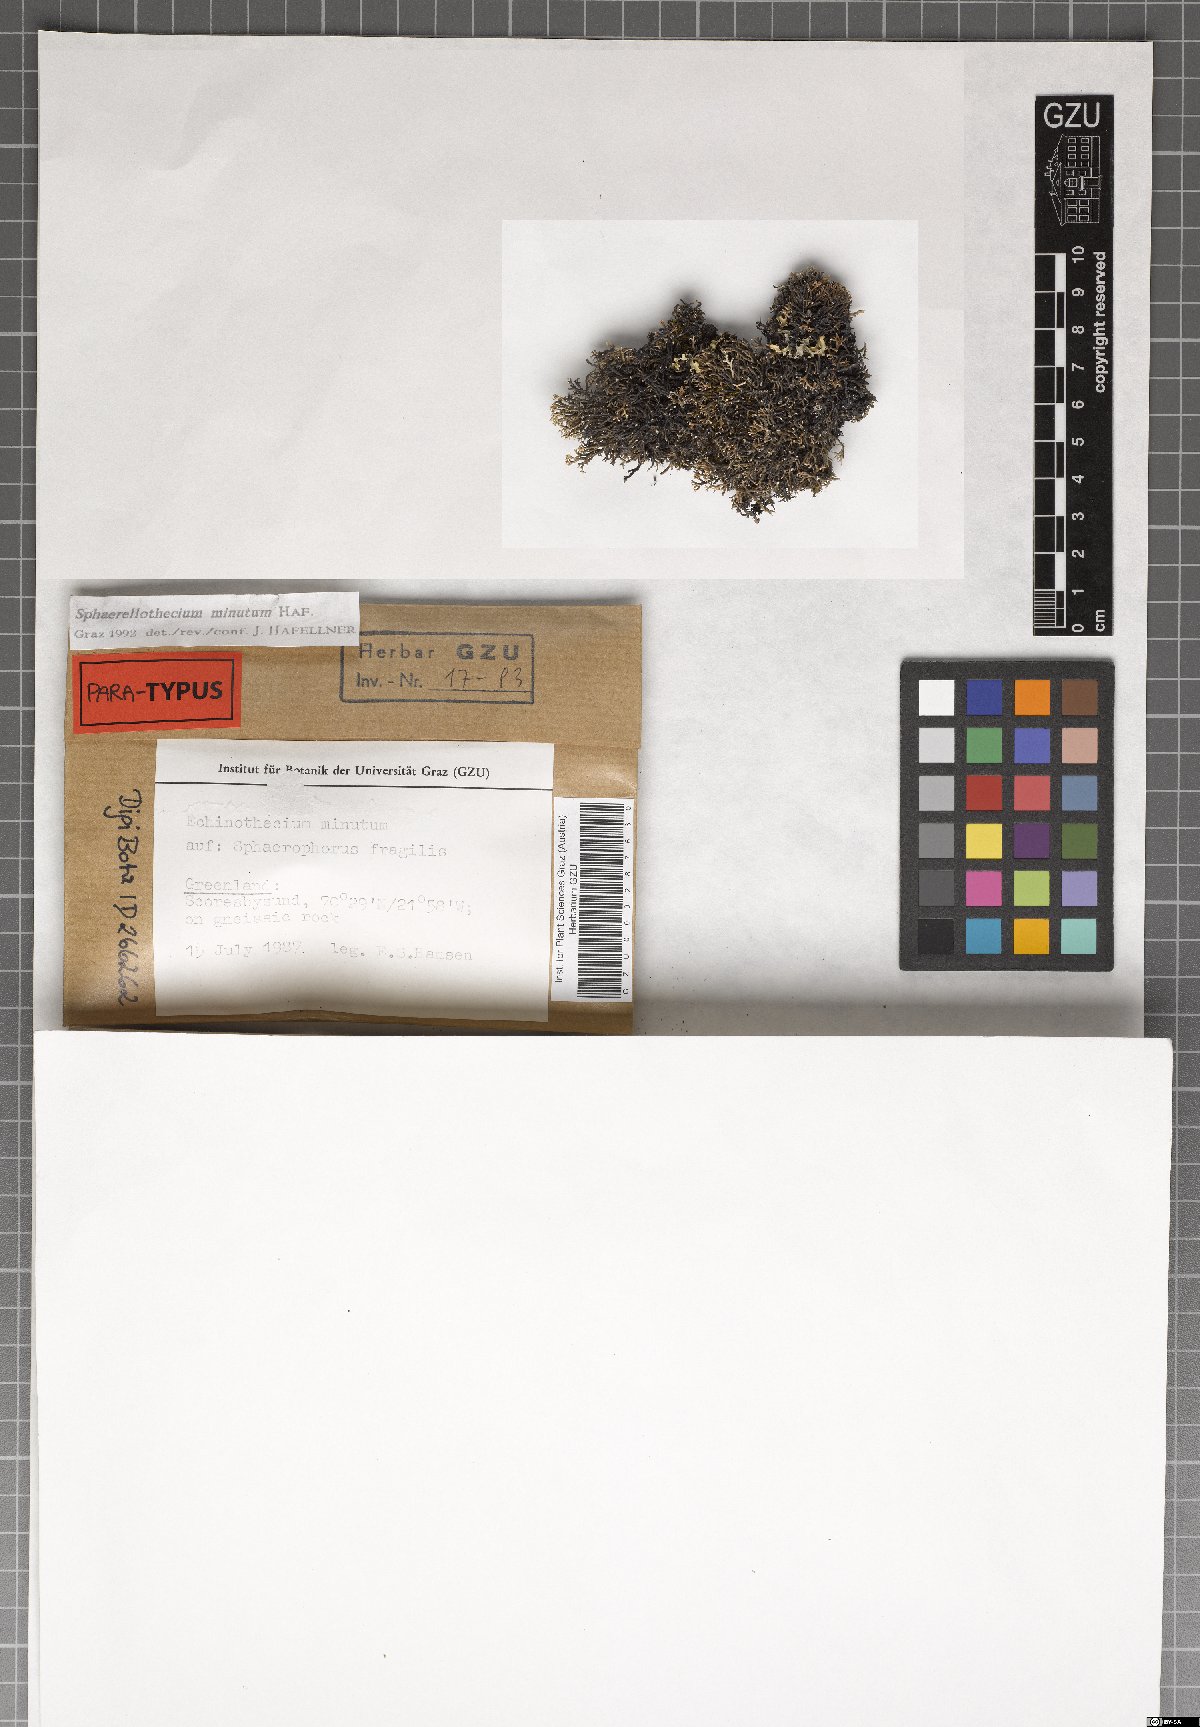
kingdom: Fungi
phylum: Ascomycota
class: Dothideomycetes
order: Mycosphaerellales
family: Mycosphaerellaceae
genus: Sphaerellothecium
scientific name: Sphaerellothecium minutum
